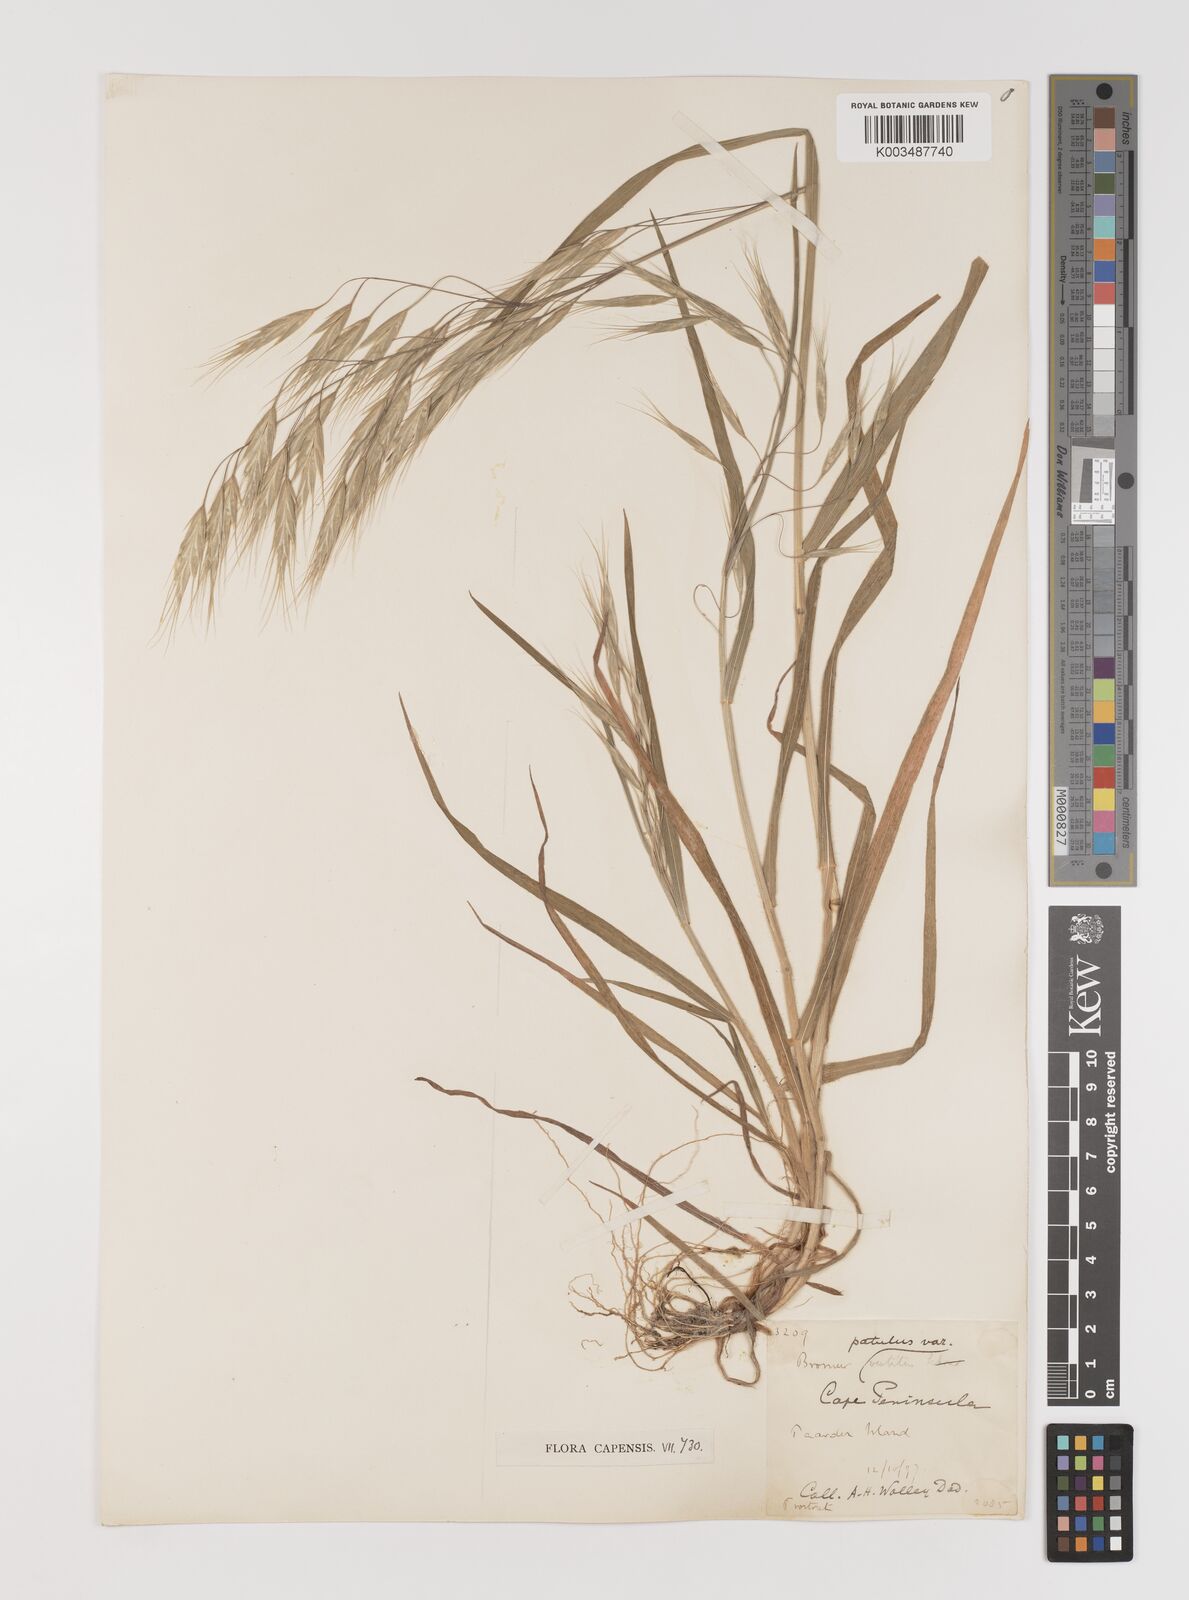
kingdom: Plantae
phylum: Tracheophyta
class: Liliopsida
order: Poales
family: Poaceae
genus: Bromus
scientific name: Bromus pectinatus
